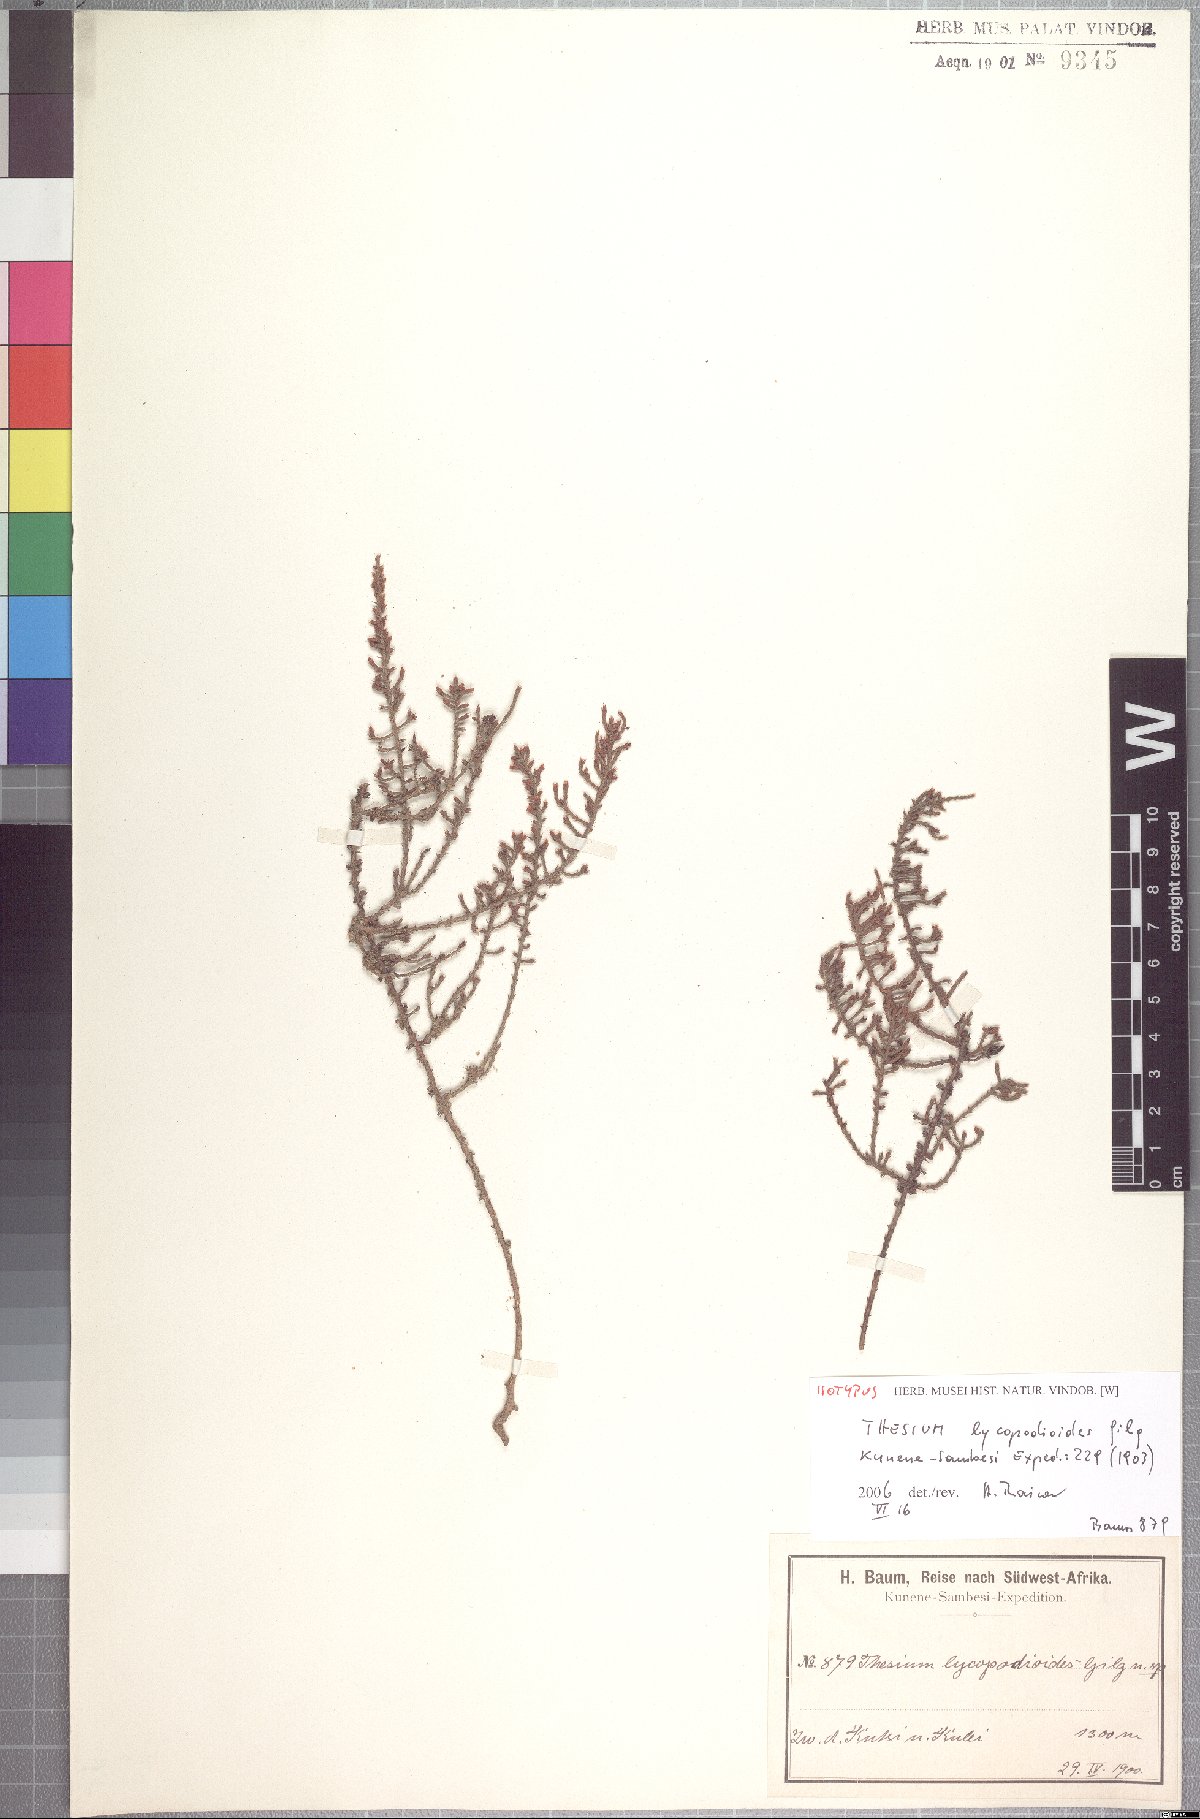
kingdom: Plantae
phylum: Tracheophyta
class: Magnoliopsida
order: Santalales
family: Thesiaceae
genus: Thesium
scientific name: Thesium lycopodioides
